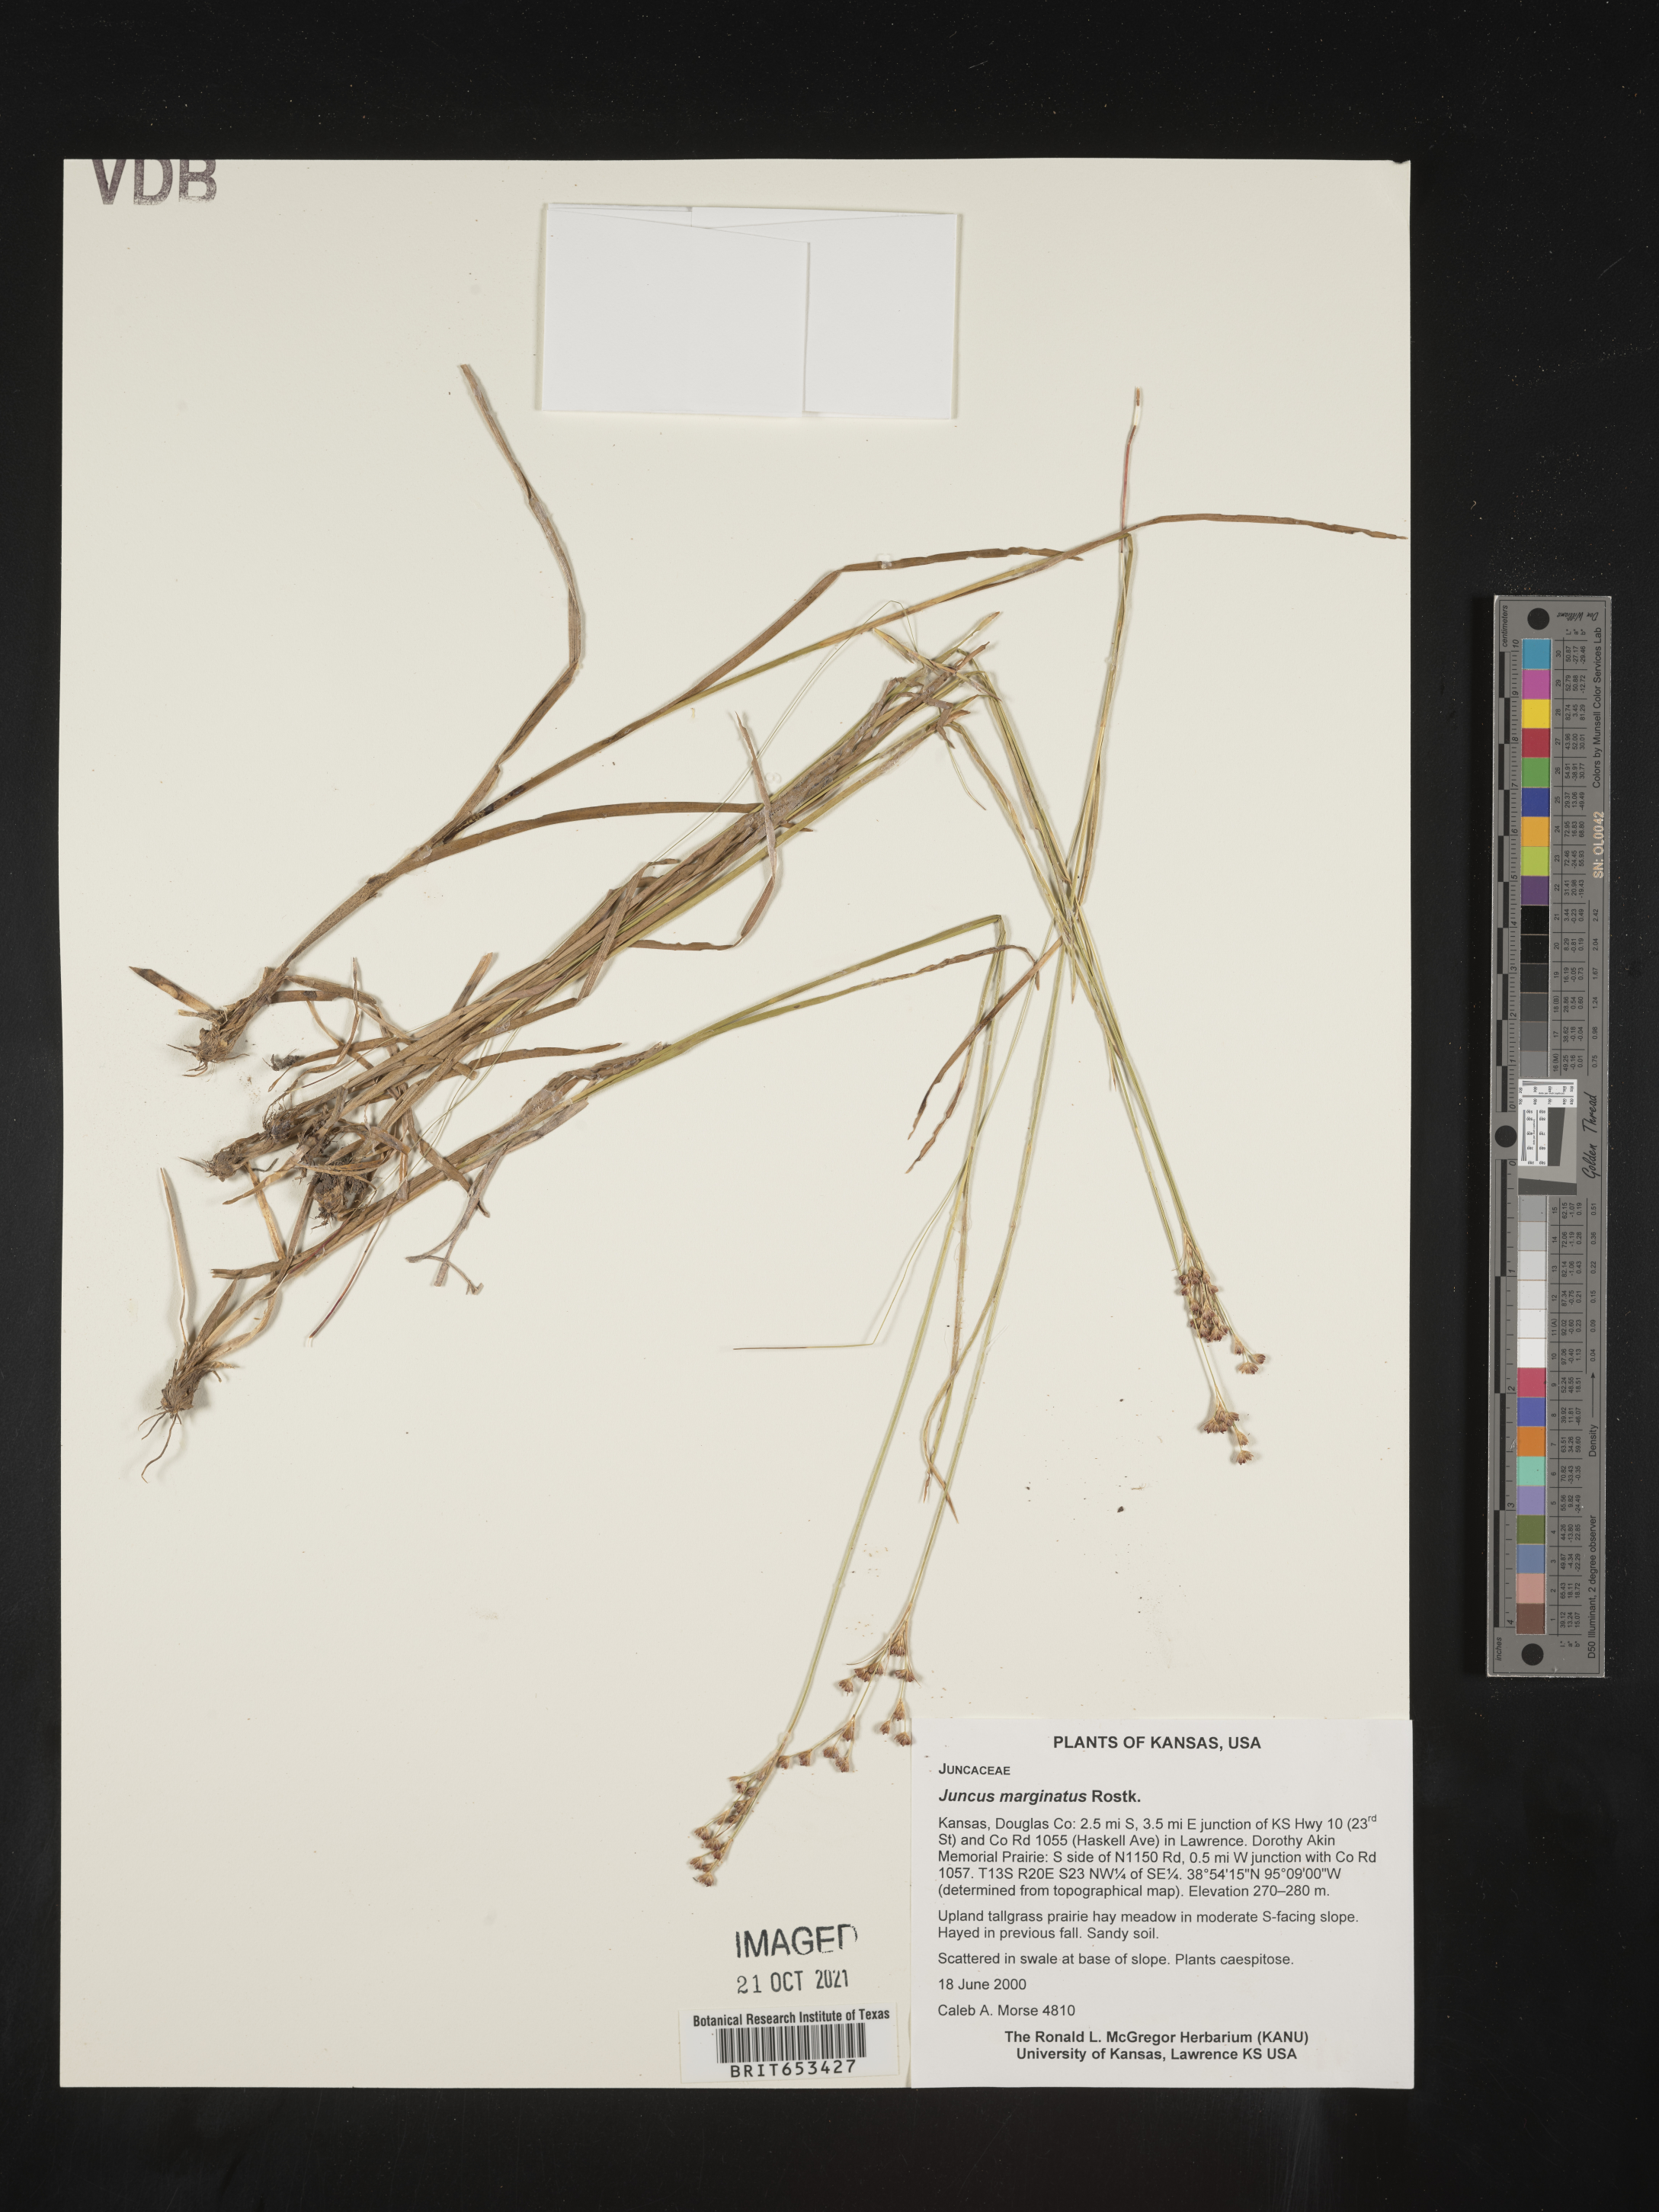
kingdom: Plantae
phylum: Tracheophyta
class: Liliopsida
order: Poales
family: Juncaceae
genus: Juncus
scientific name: Juncus marginatus
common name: Grass-leaf rush
